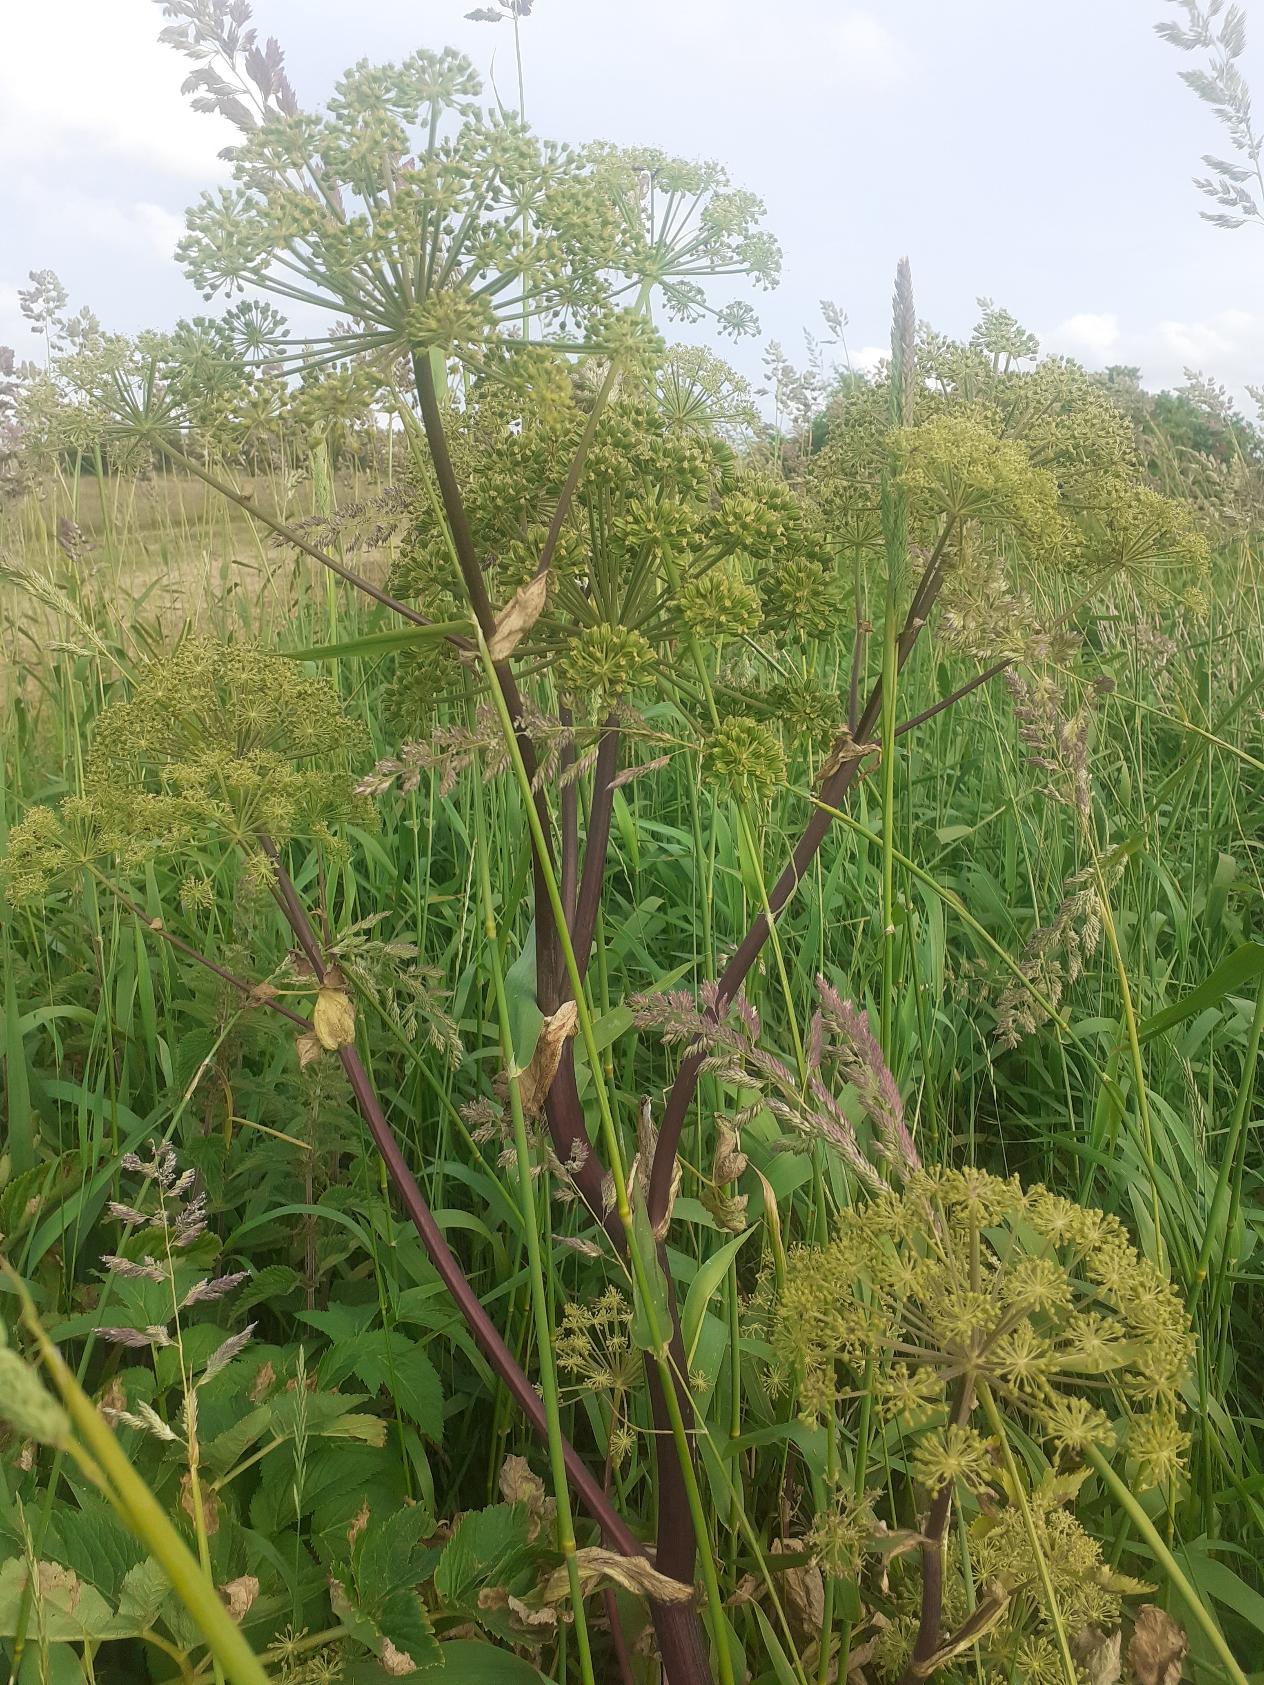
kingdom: Plantae
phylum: Tracheophyta
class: Magnoliopsida
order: Apiales
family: Apiaceae
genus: Angelica
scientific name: Angelica archangelica
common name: Kvan
